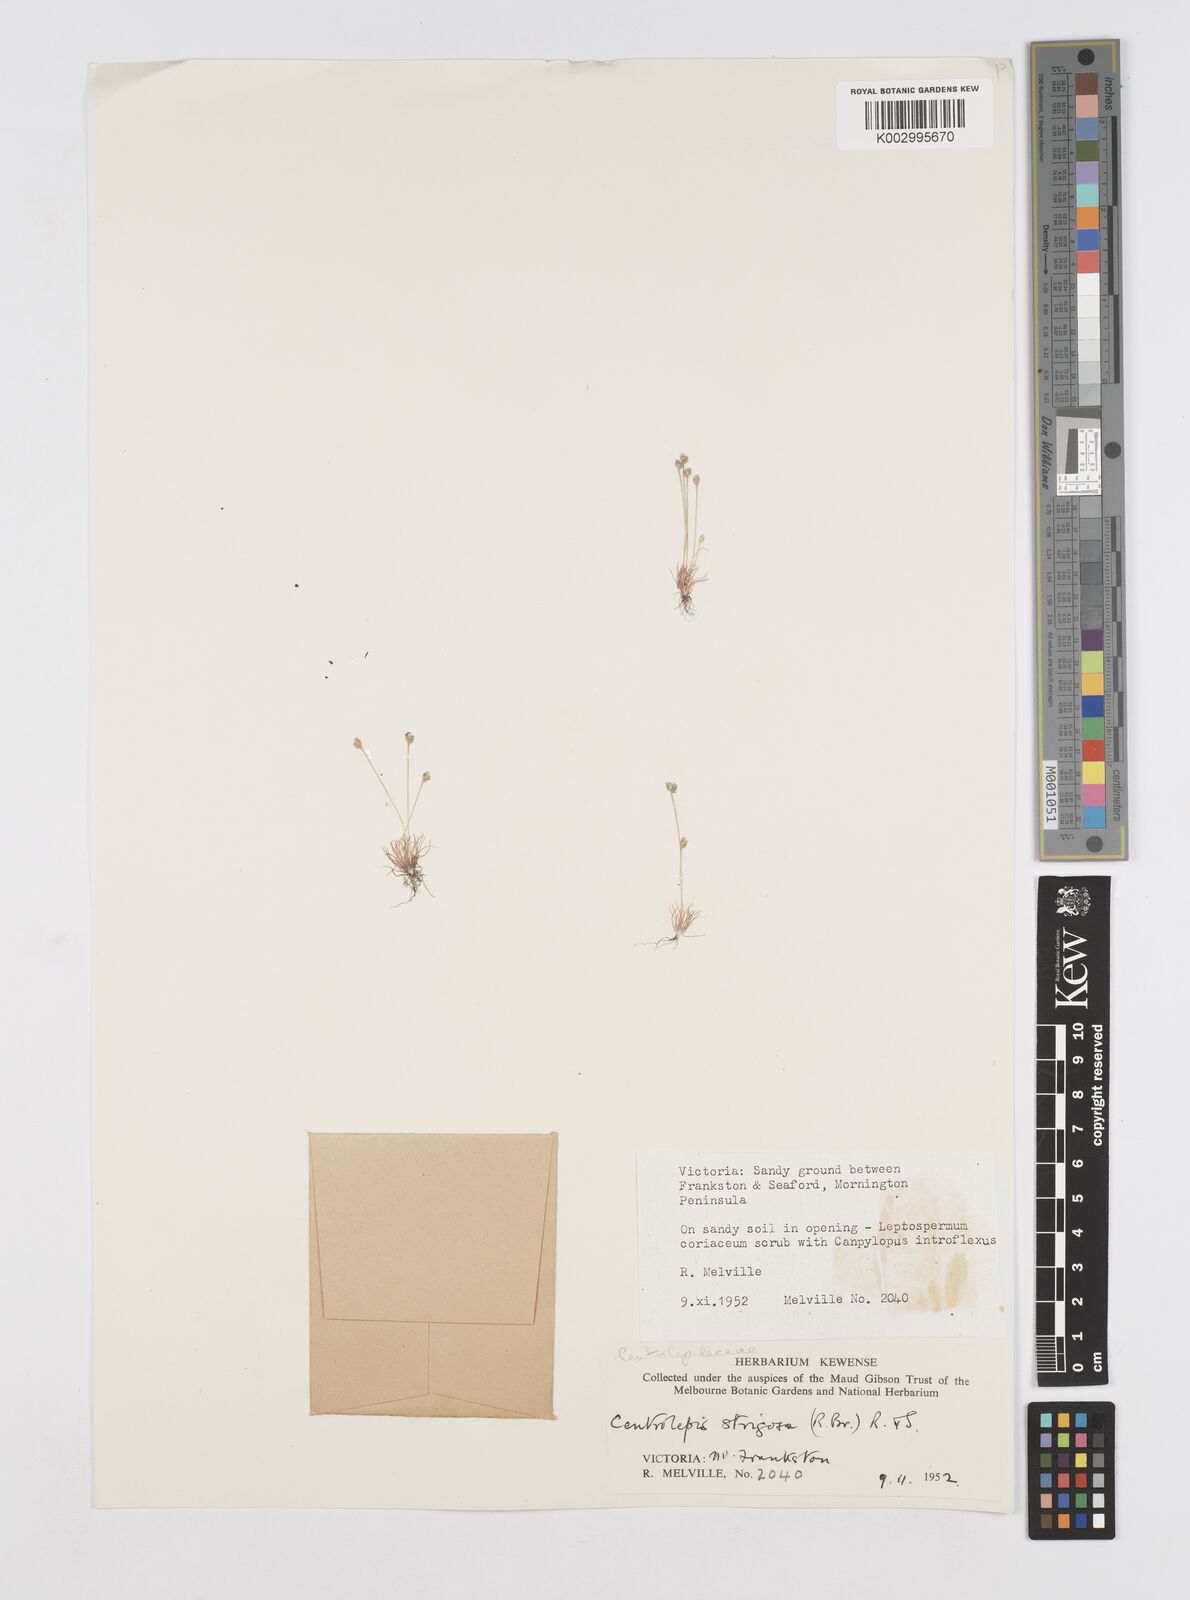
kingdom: Plantae
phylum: Tracheophyta
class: Liliopsida
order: Poales
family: Restionaceae
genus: Centrolepis
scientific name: Centrolepis strigosa
